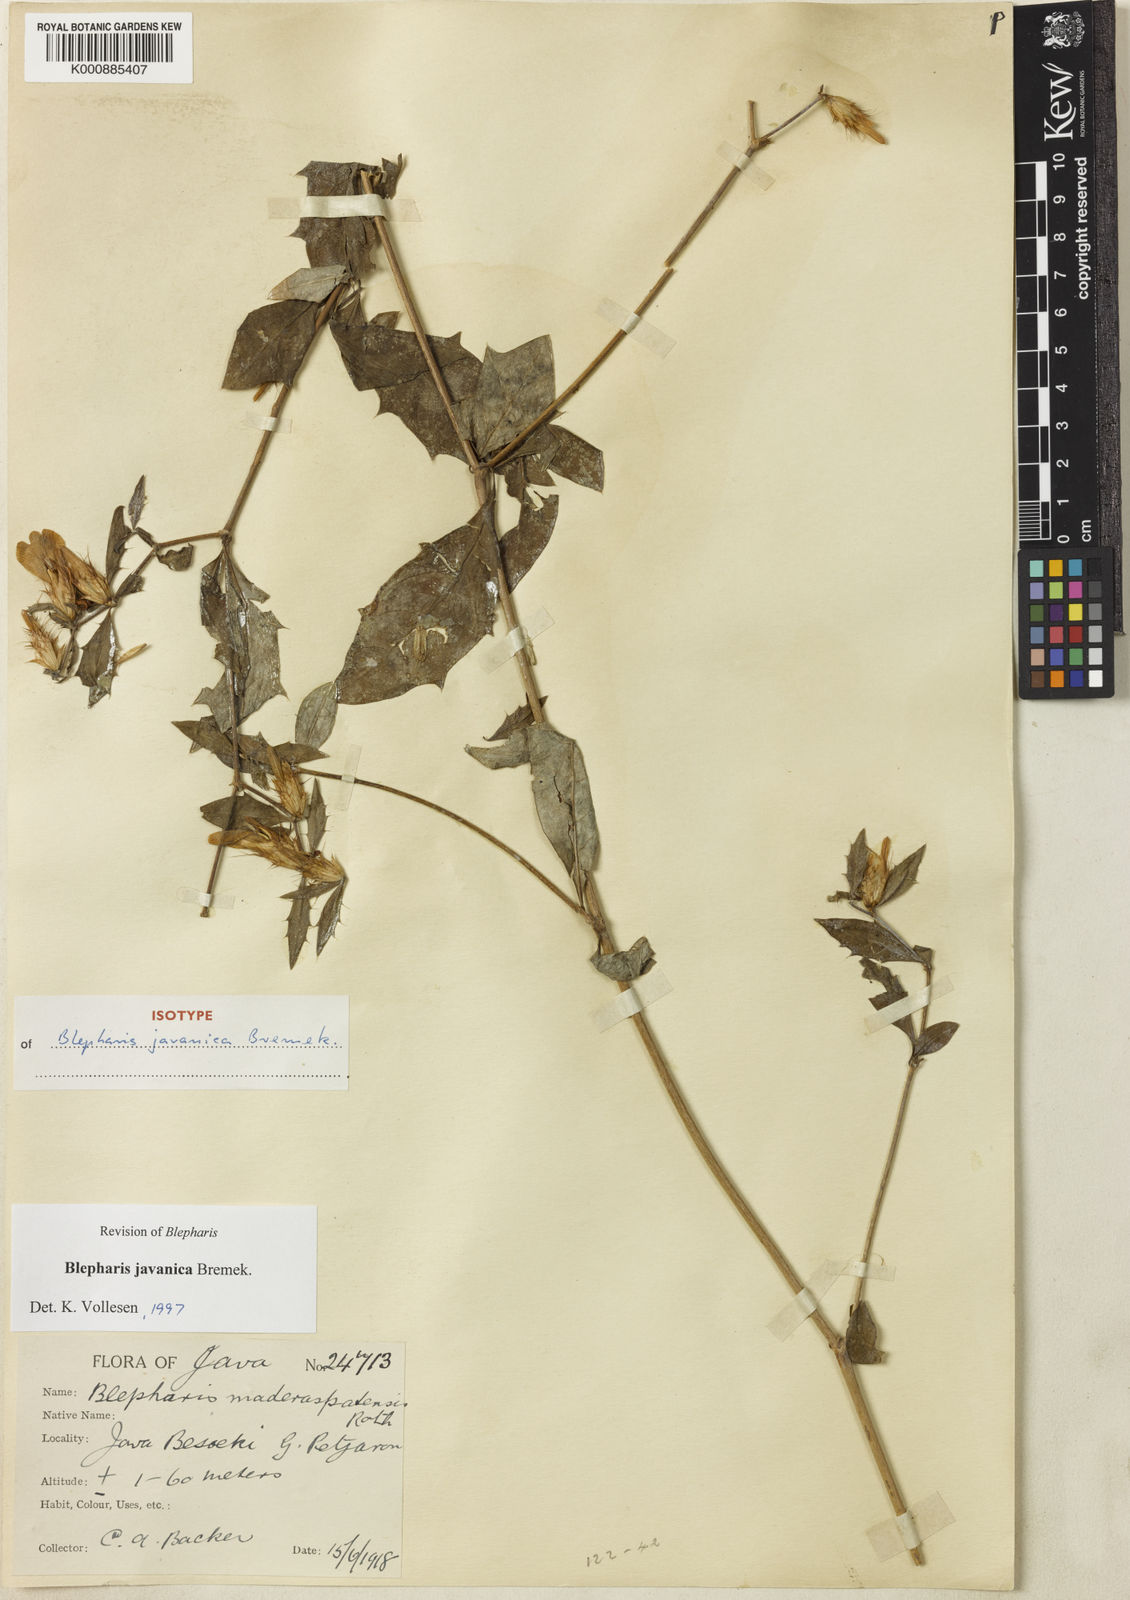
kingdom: Plantae
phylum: Tracheophyta
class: Magnoliopsida
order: Lamiales
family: Acanthaceae
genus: Blepharis
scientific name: Blepharis javanica
